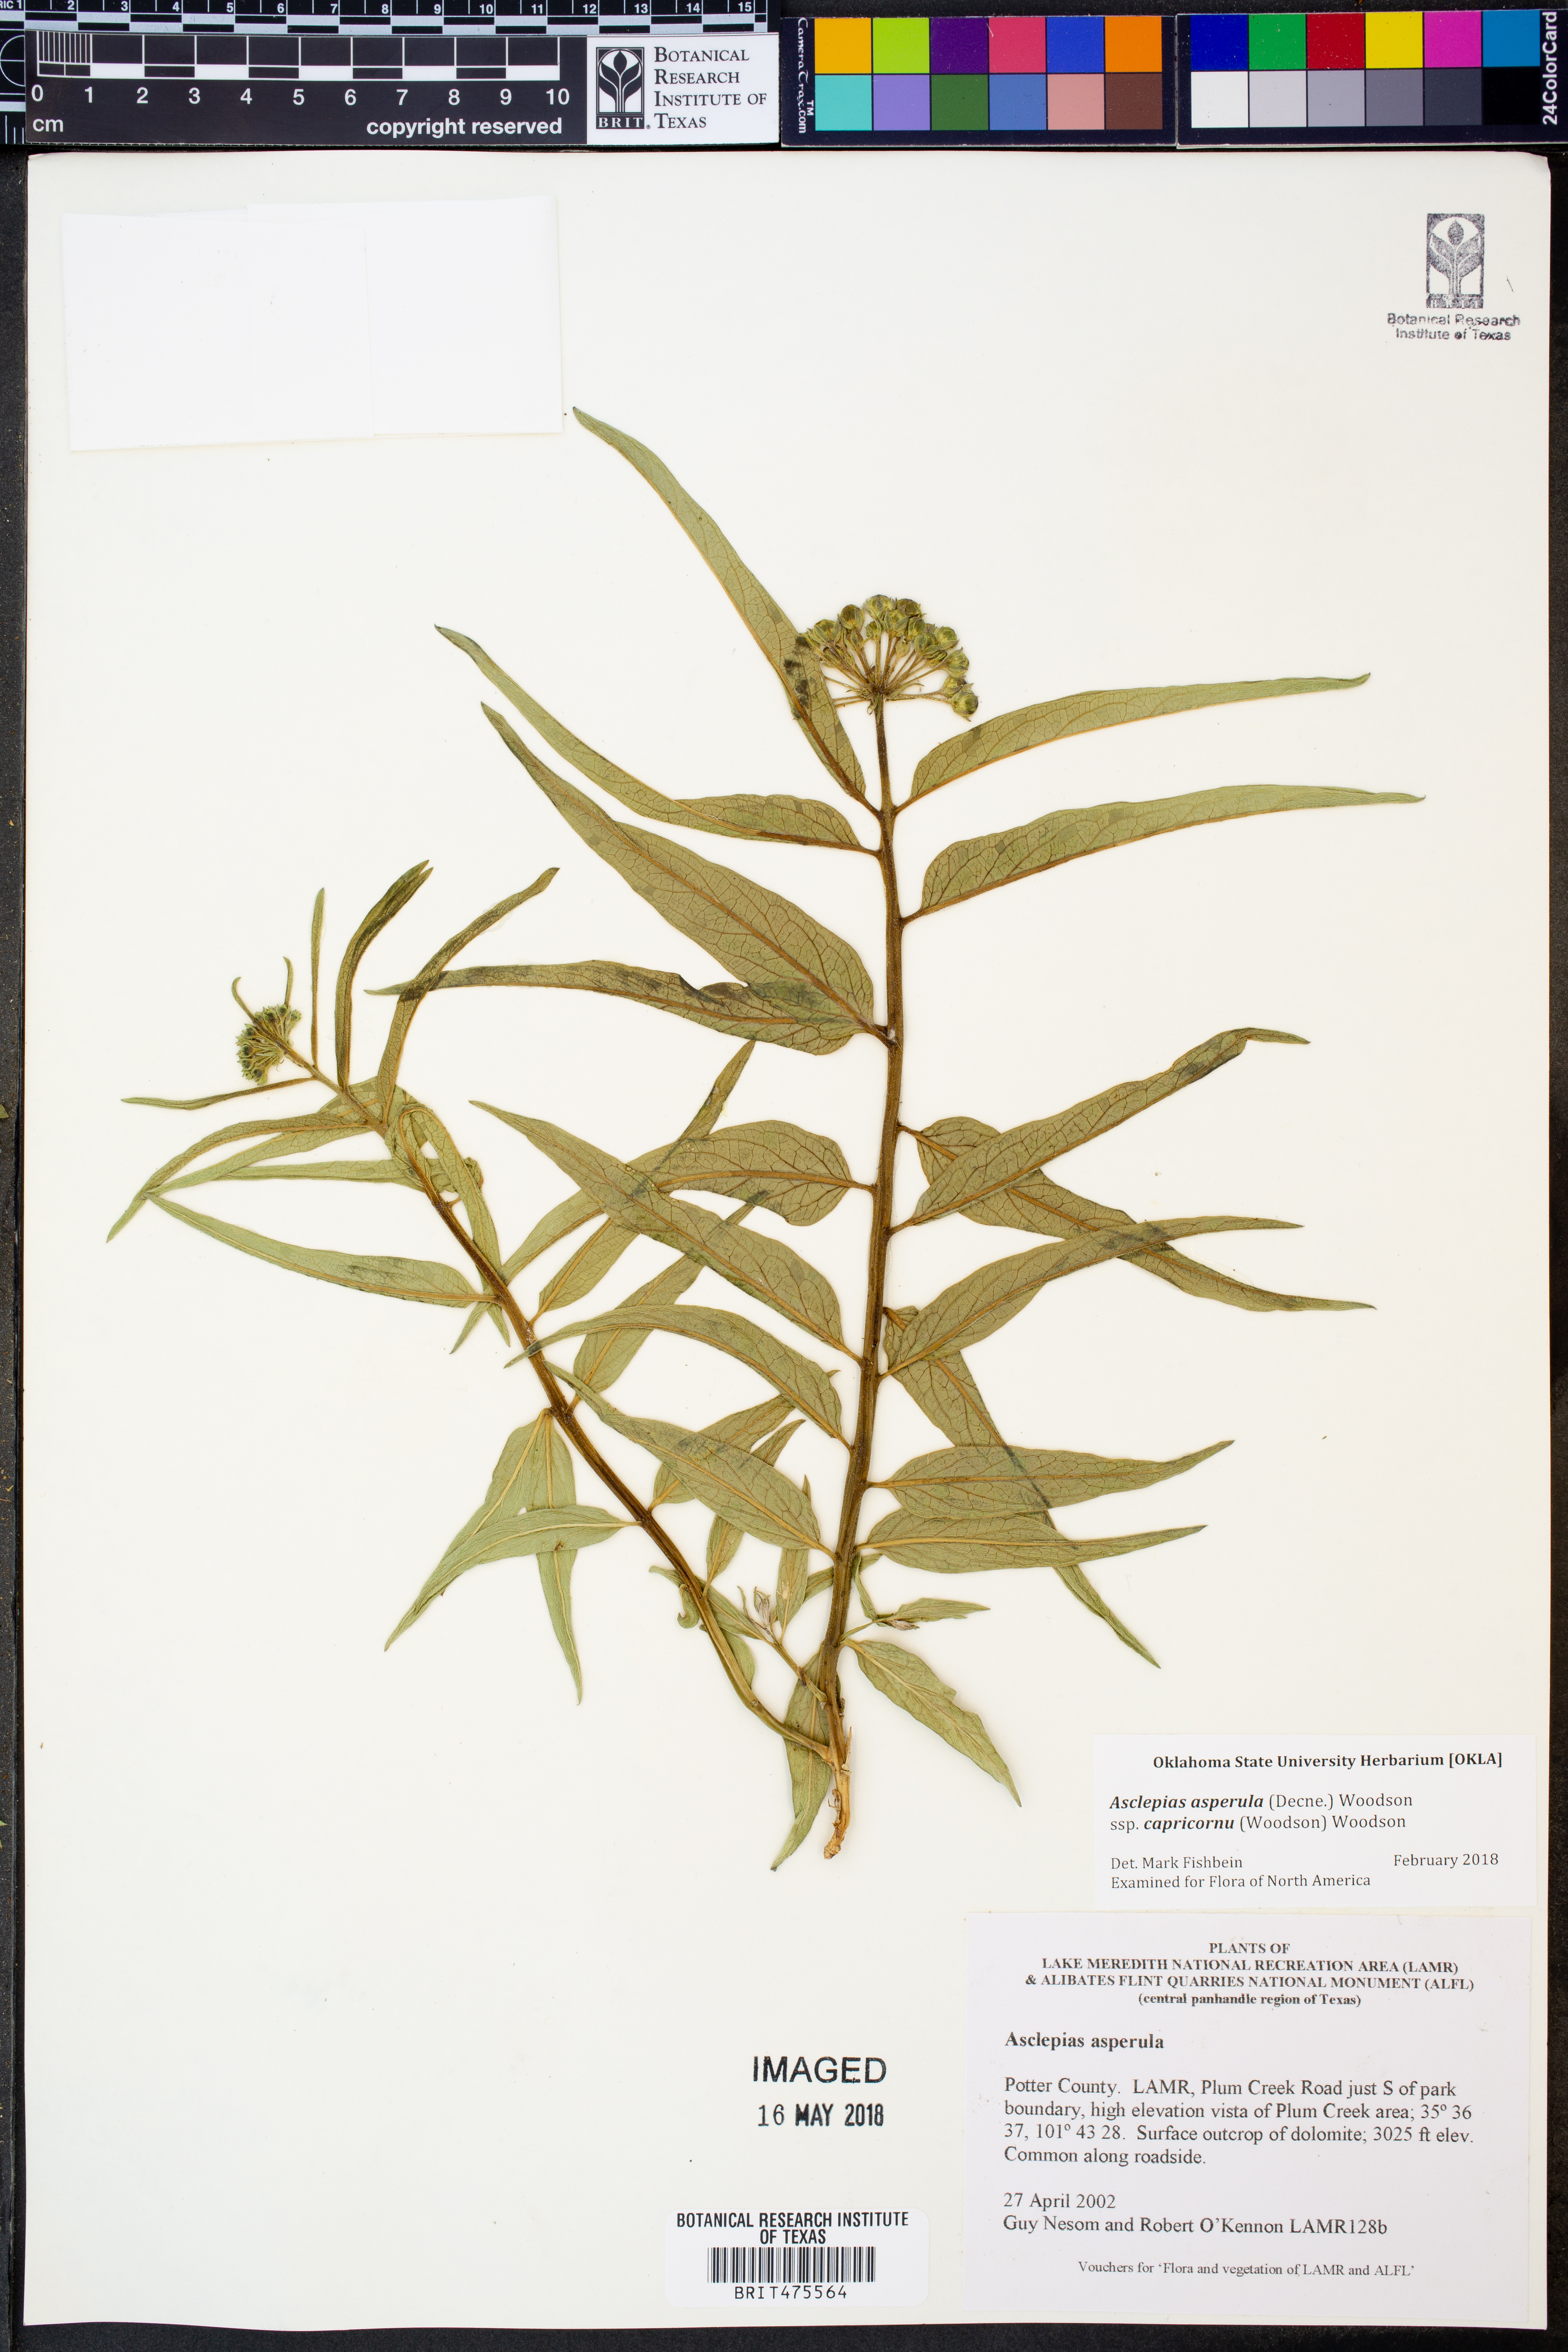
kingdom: Plantae
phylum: Tracheophyta
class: Magnoliopsida
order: Gentianales
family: Apocynaceae
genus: Asclepias
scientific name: Asclepias asperula
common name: Antelope horns
